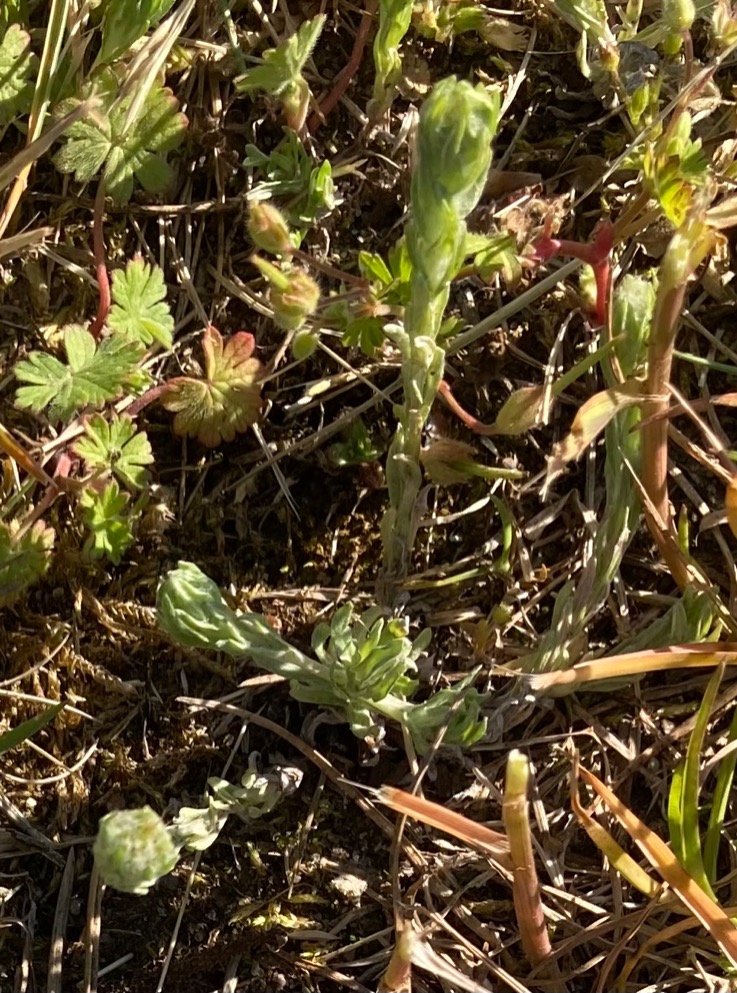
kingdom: Plantae
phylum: Tracheophyta
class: Magnoliopsida
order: Asterales
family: Asteraceae
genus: Filago
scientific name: Filago germanica
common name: Kugle-museurt
